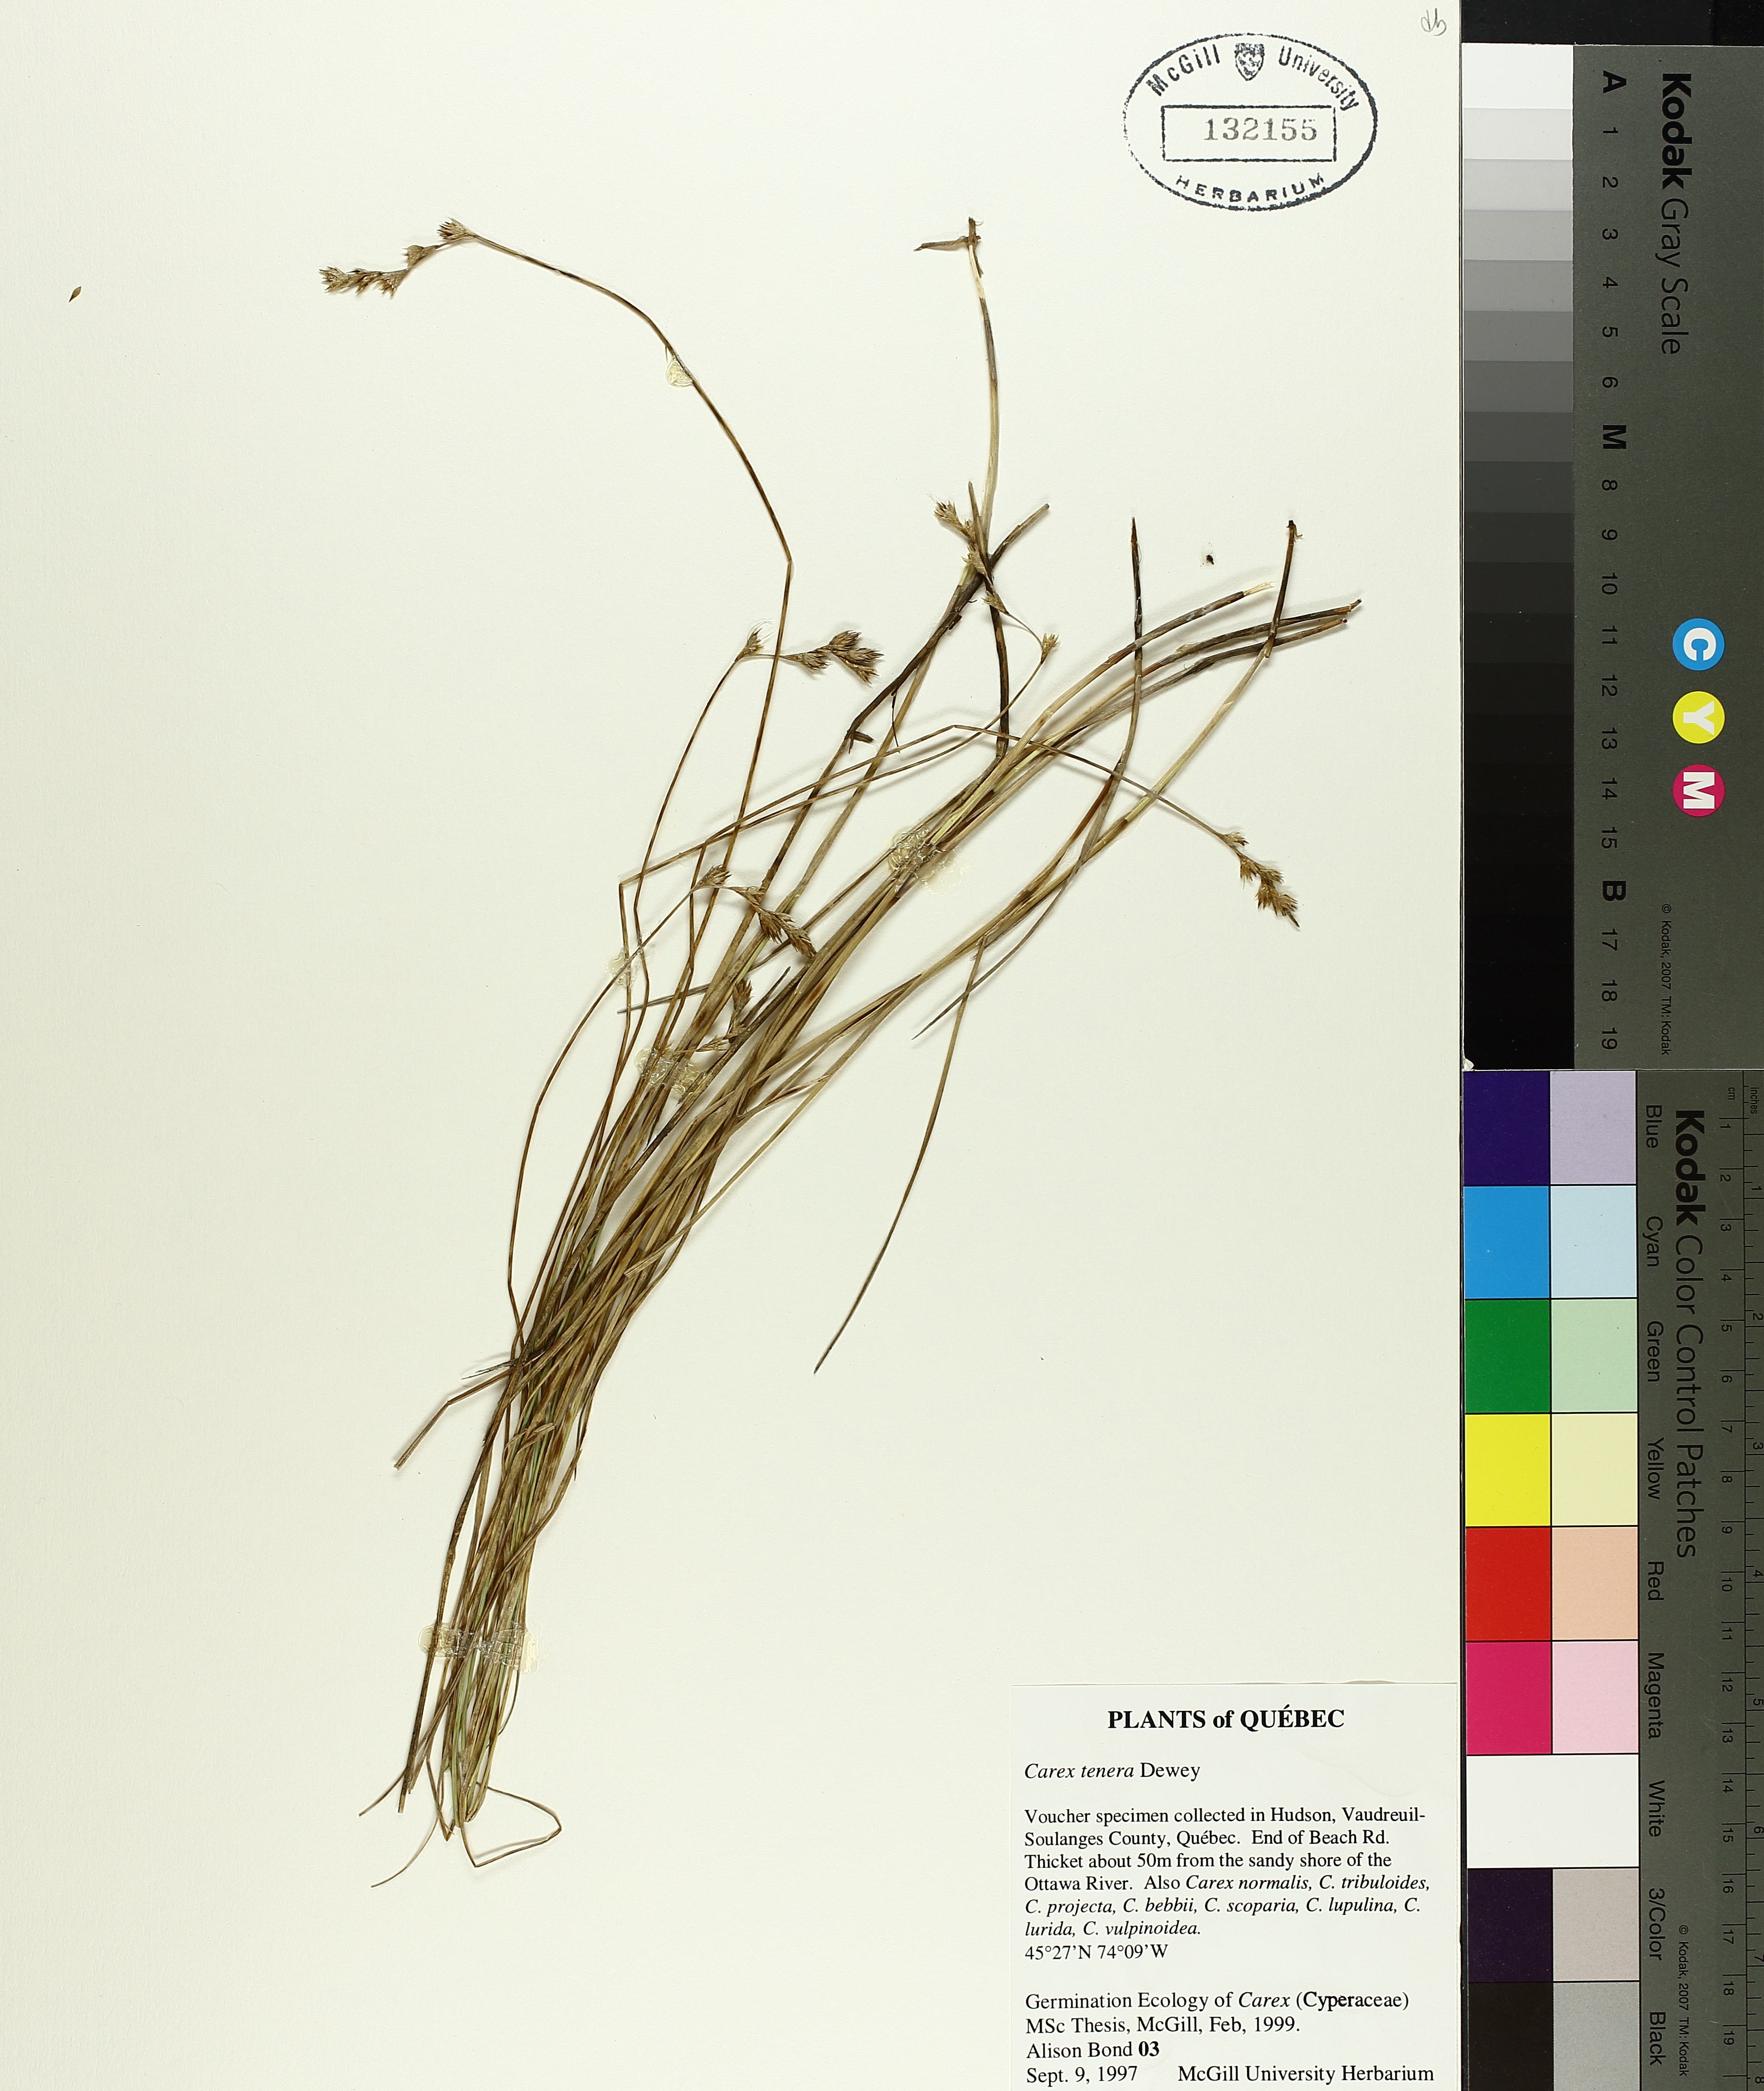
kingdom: Plantae
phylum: Tracheophyta
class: Liliopsida
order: Poales
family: Cyperaceae
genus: Carex
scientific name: Carex tenera
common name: Broad-fruited sedge
